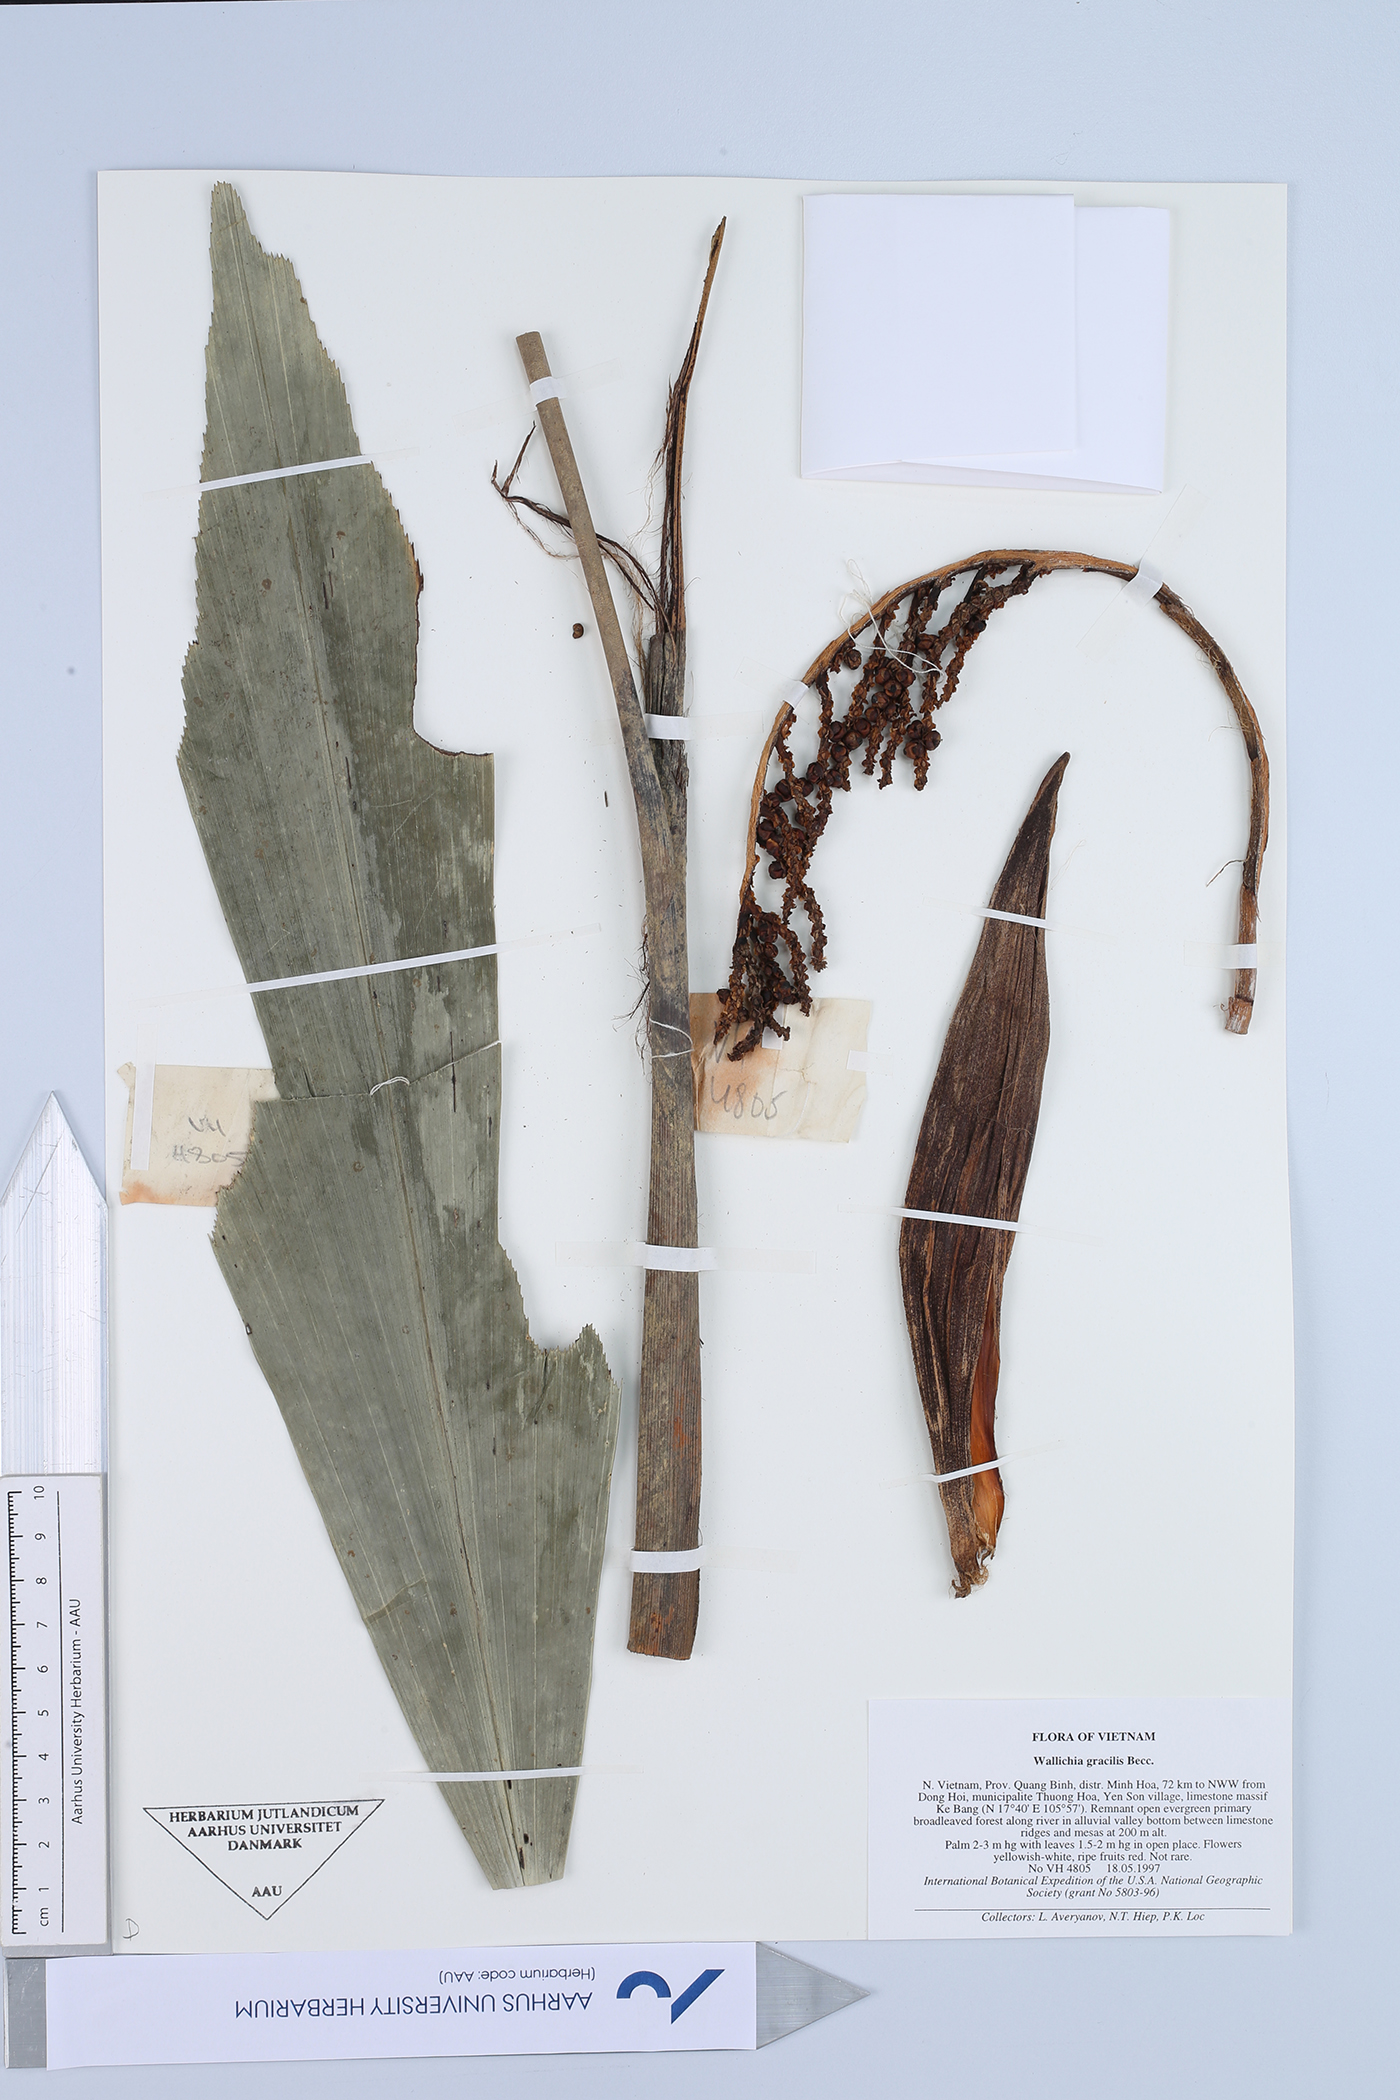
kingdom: Plantae
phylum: Tracheophyta
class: Liliopsida
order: Arecales
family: Arecaceae
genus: Wallichia
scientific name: Wallichia gracilis
